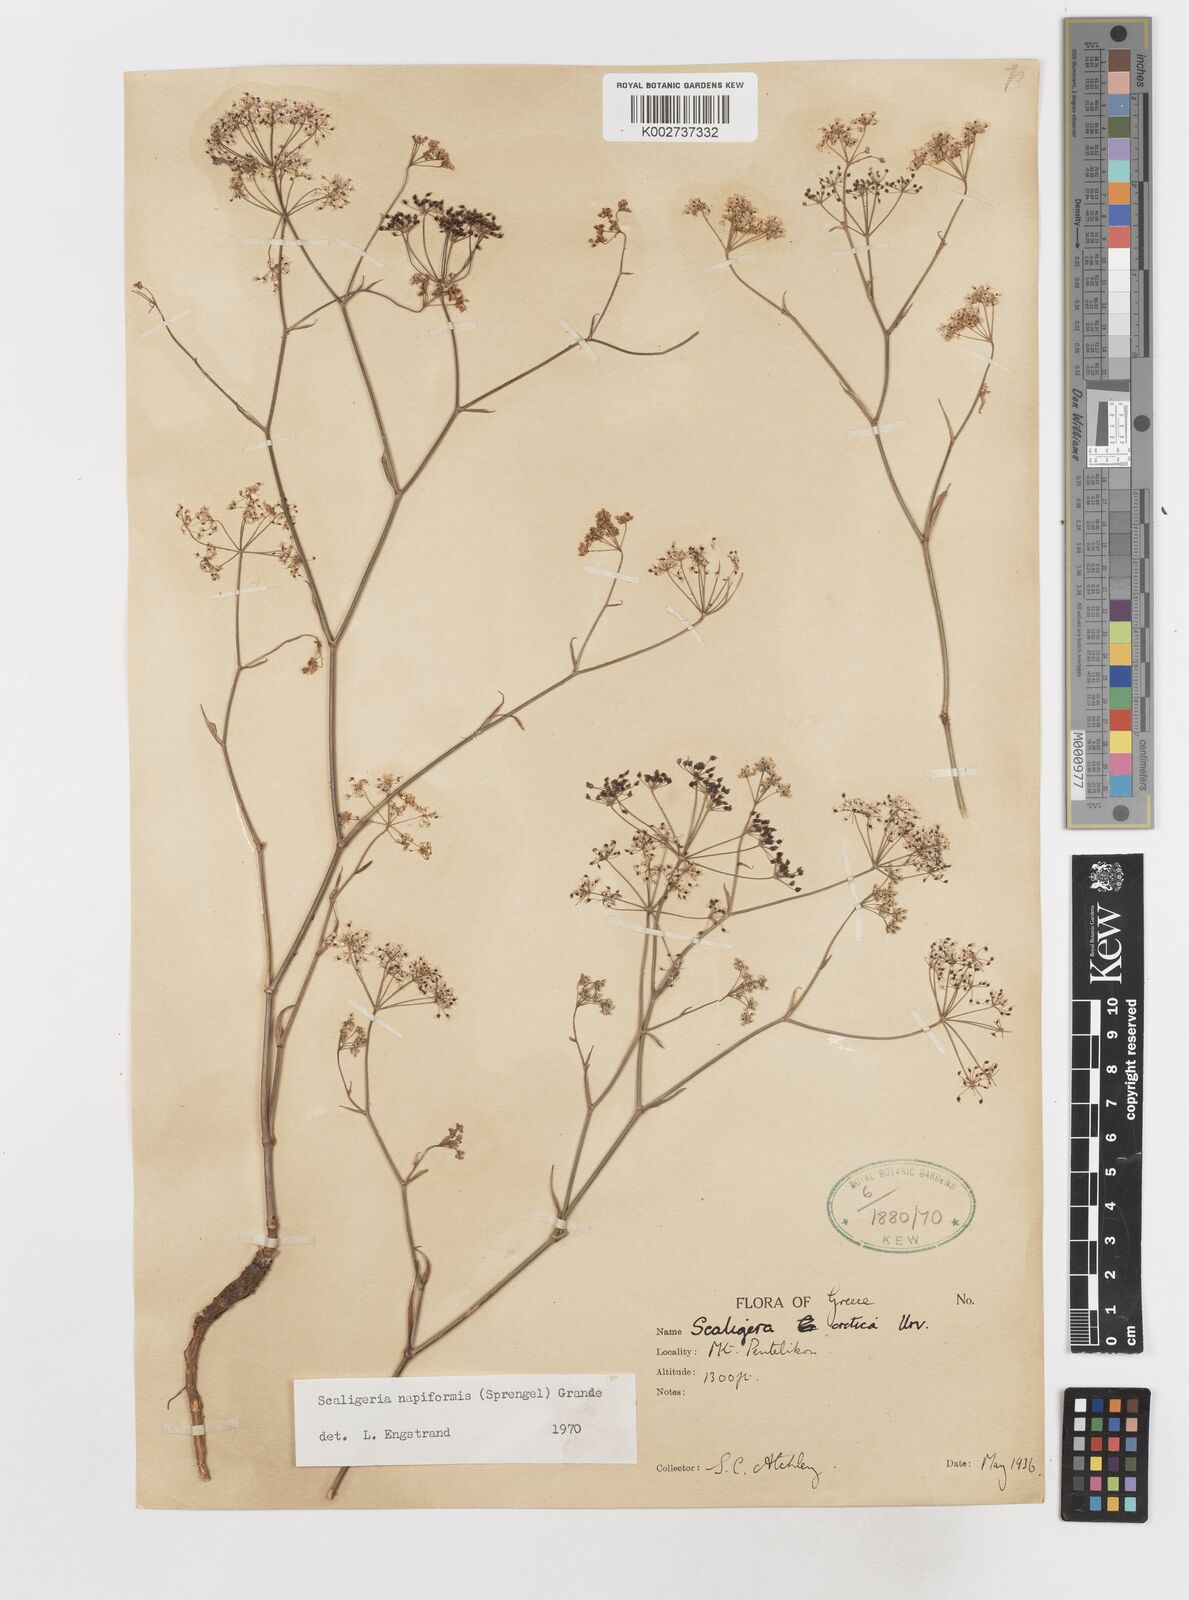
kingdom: Plantae
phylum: Tracheophyta
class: Magnoliopsida
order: Apiales
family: Apiaceae
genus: Scaligeria
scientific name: Scaligeria napiformis
